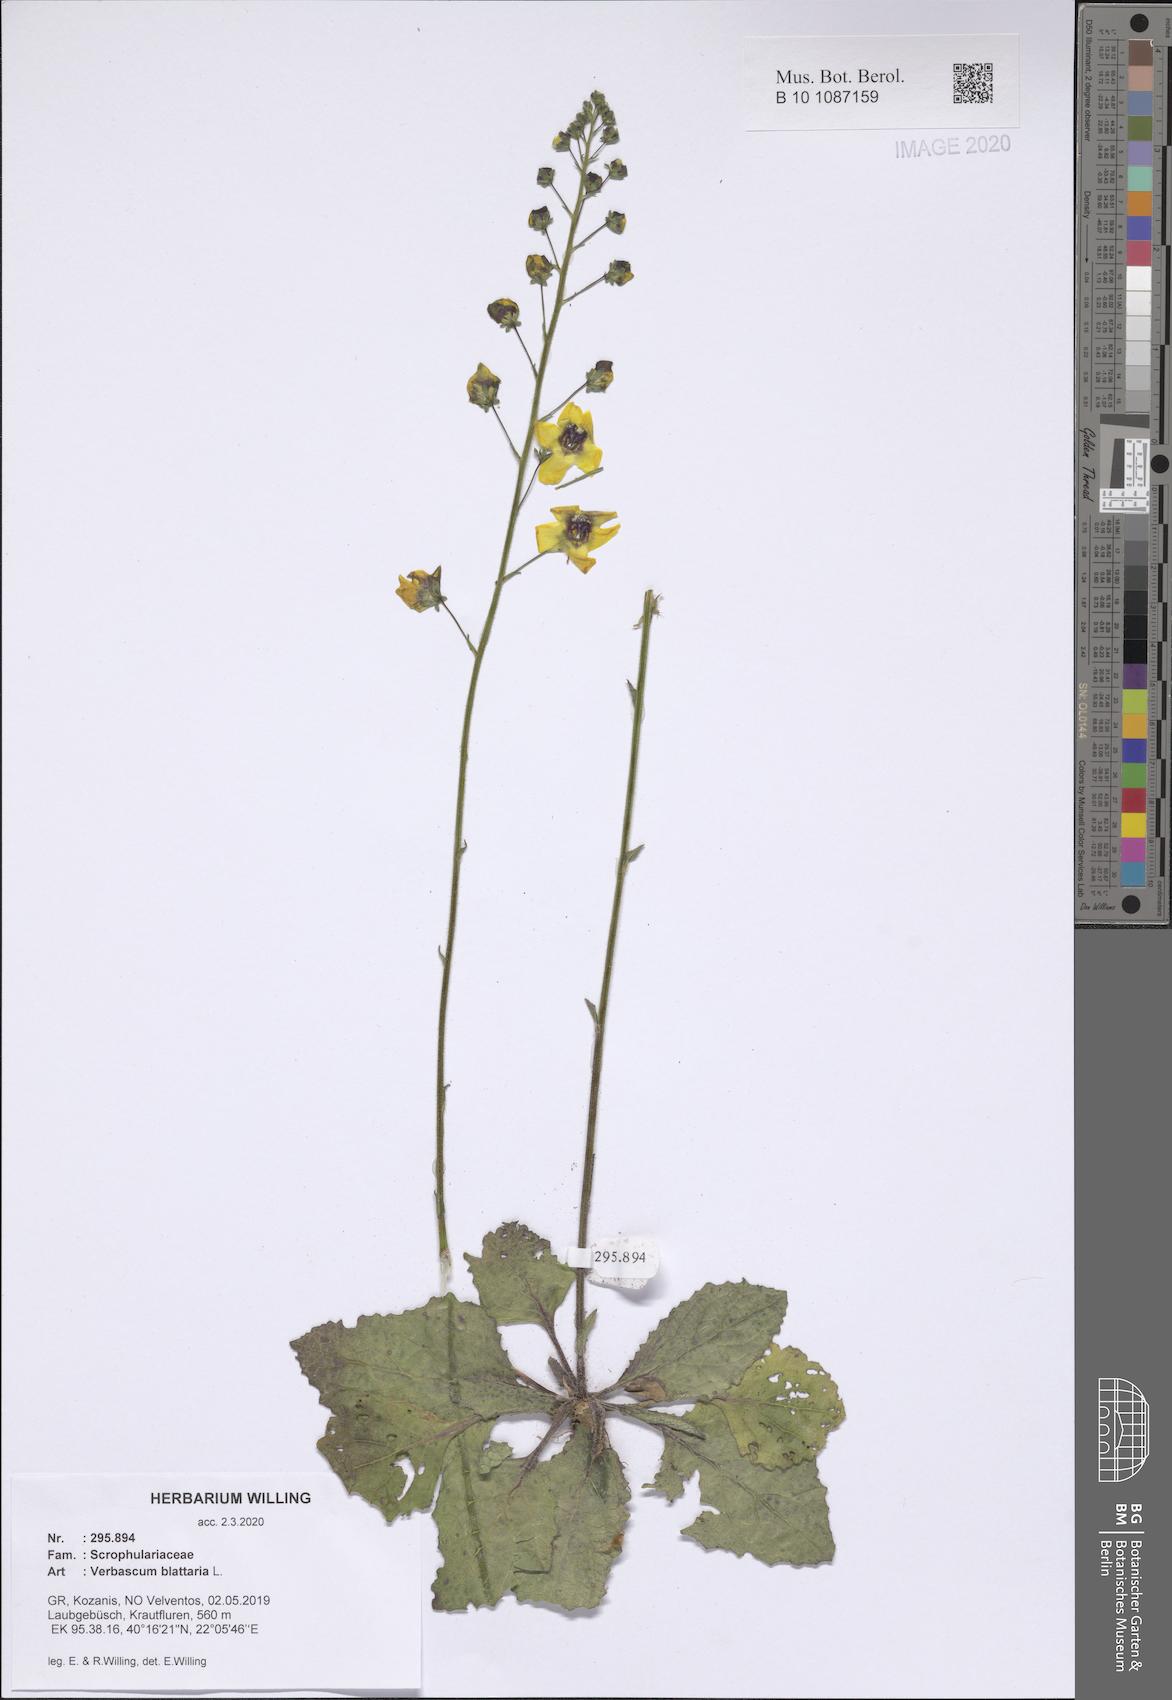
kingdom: Plantae
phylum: Tracheophyta
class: Magnoliopsida
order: Lamiales
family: Scrophulariaceae
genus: Verbascum
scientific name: Verbascum blattaria
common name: Moth mullein
